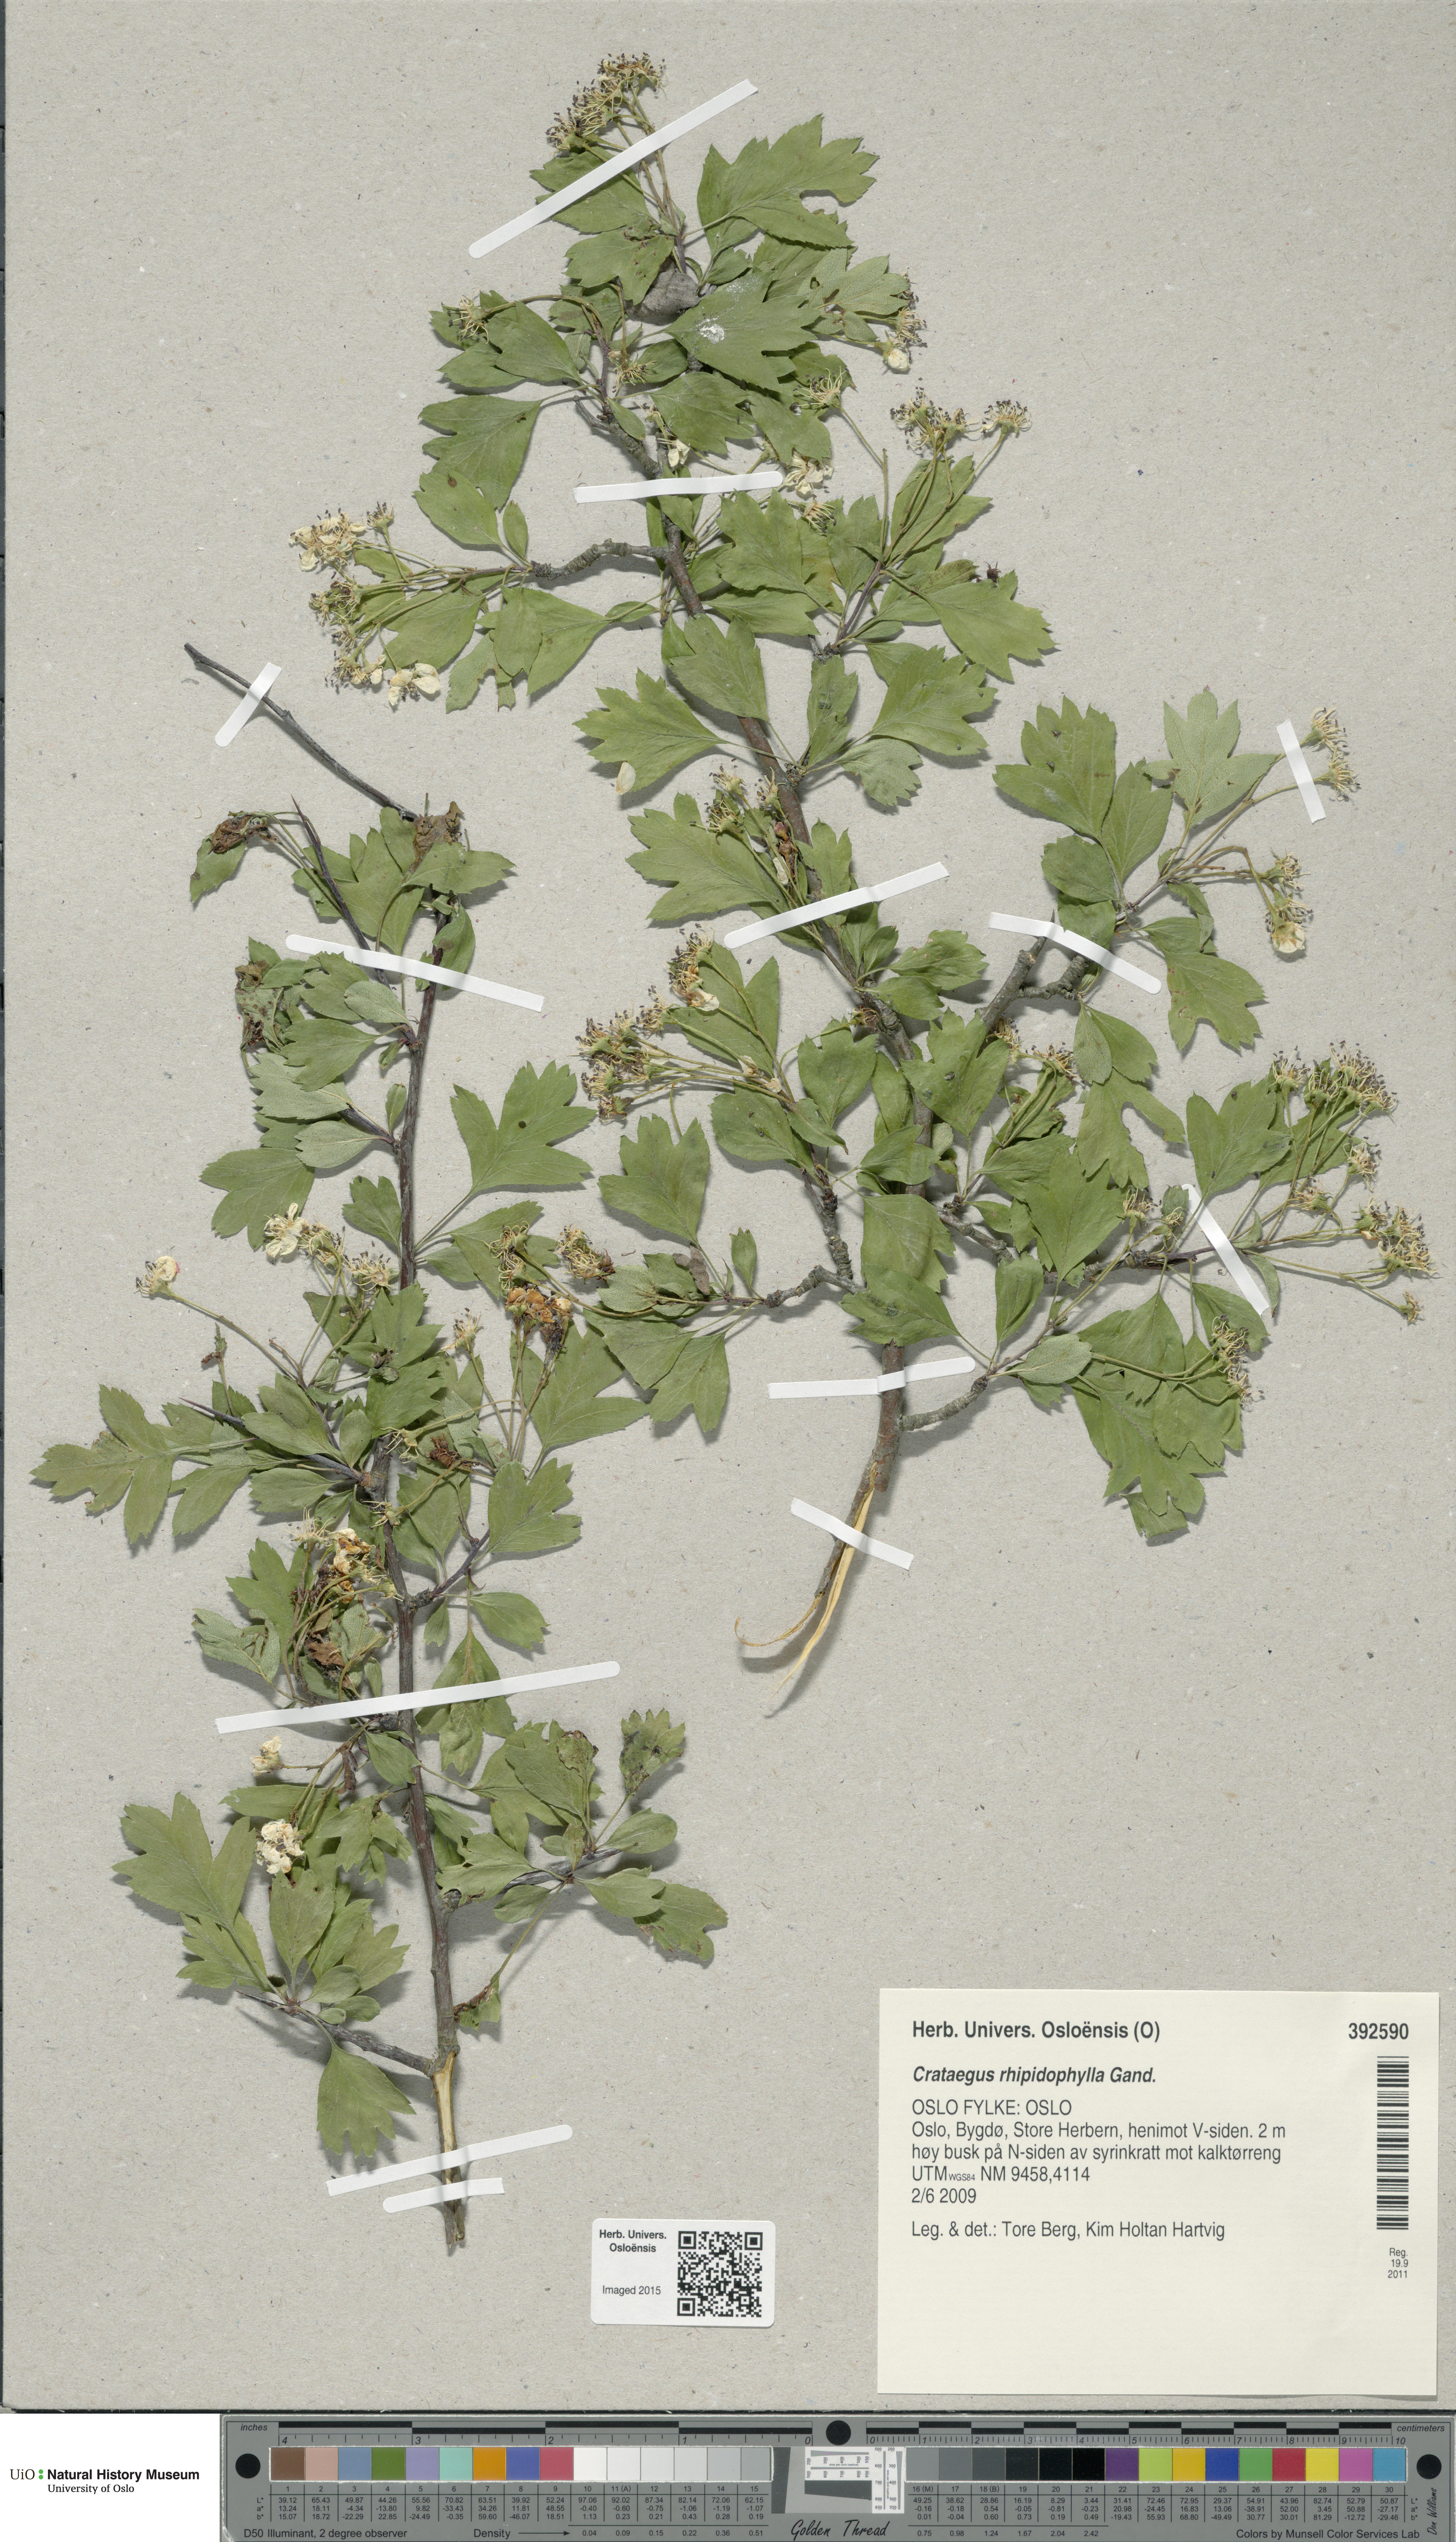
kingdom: Plantae
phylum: Tracheophyta
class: Magnoliopsida
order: Rosales
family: Rosaceae
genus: Crataegus
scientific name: Crataegus rhipidophylla
